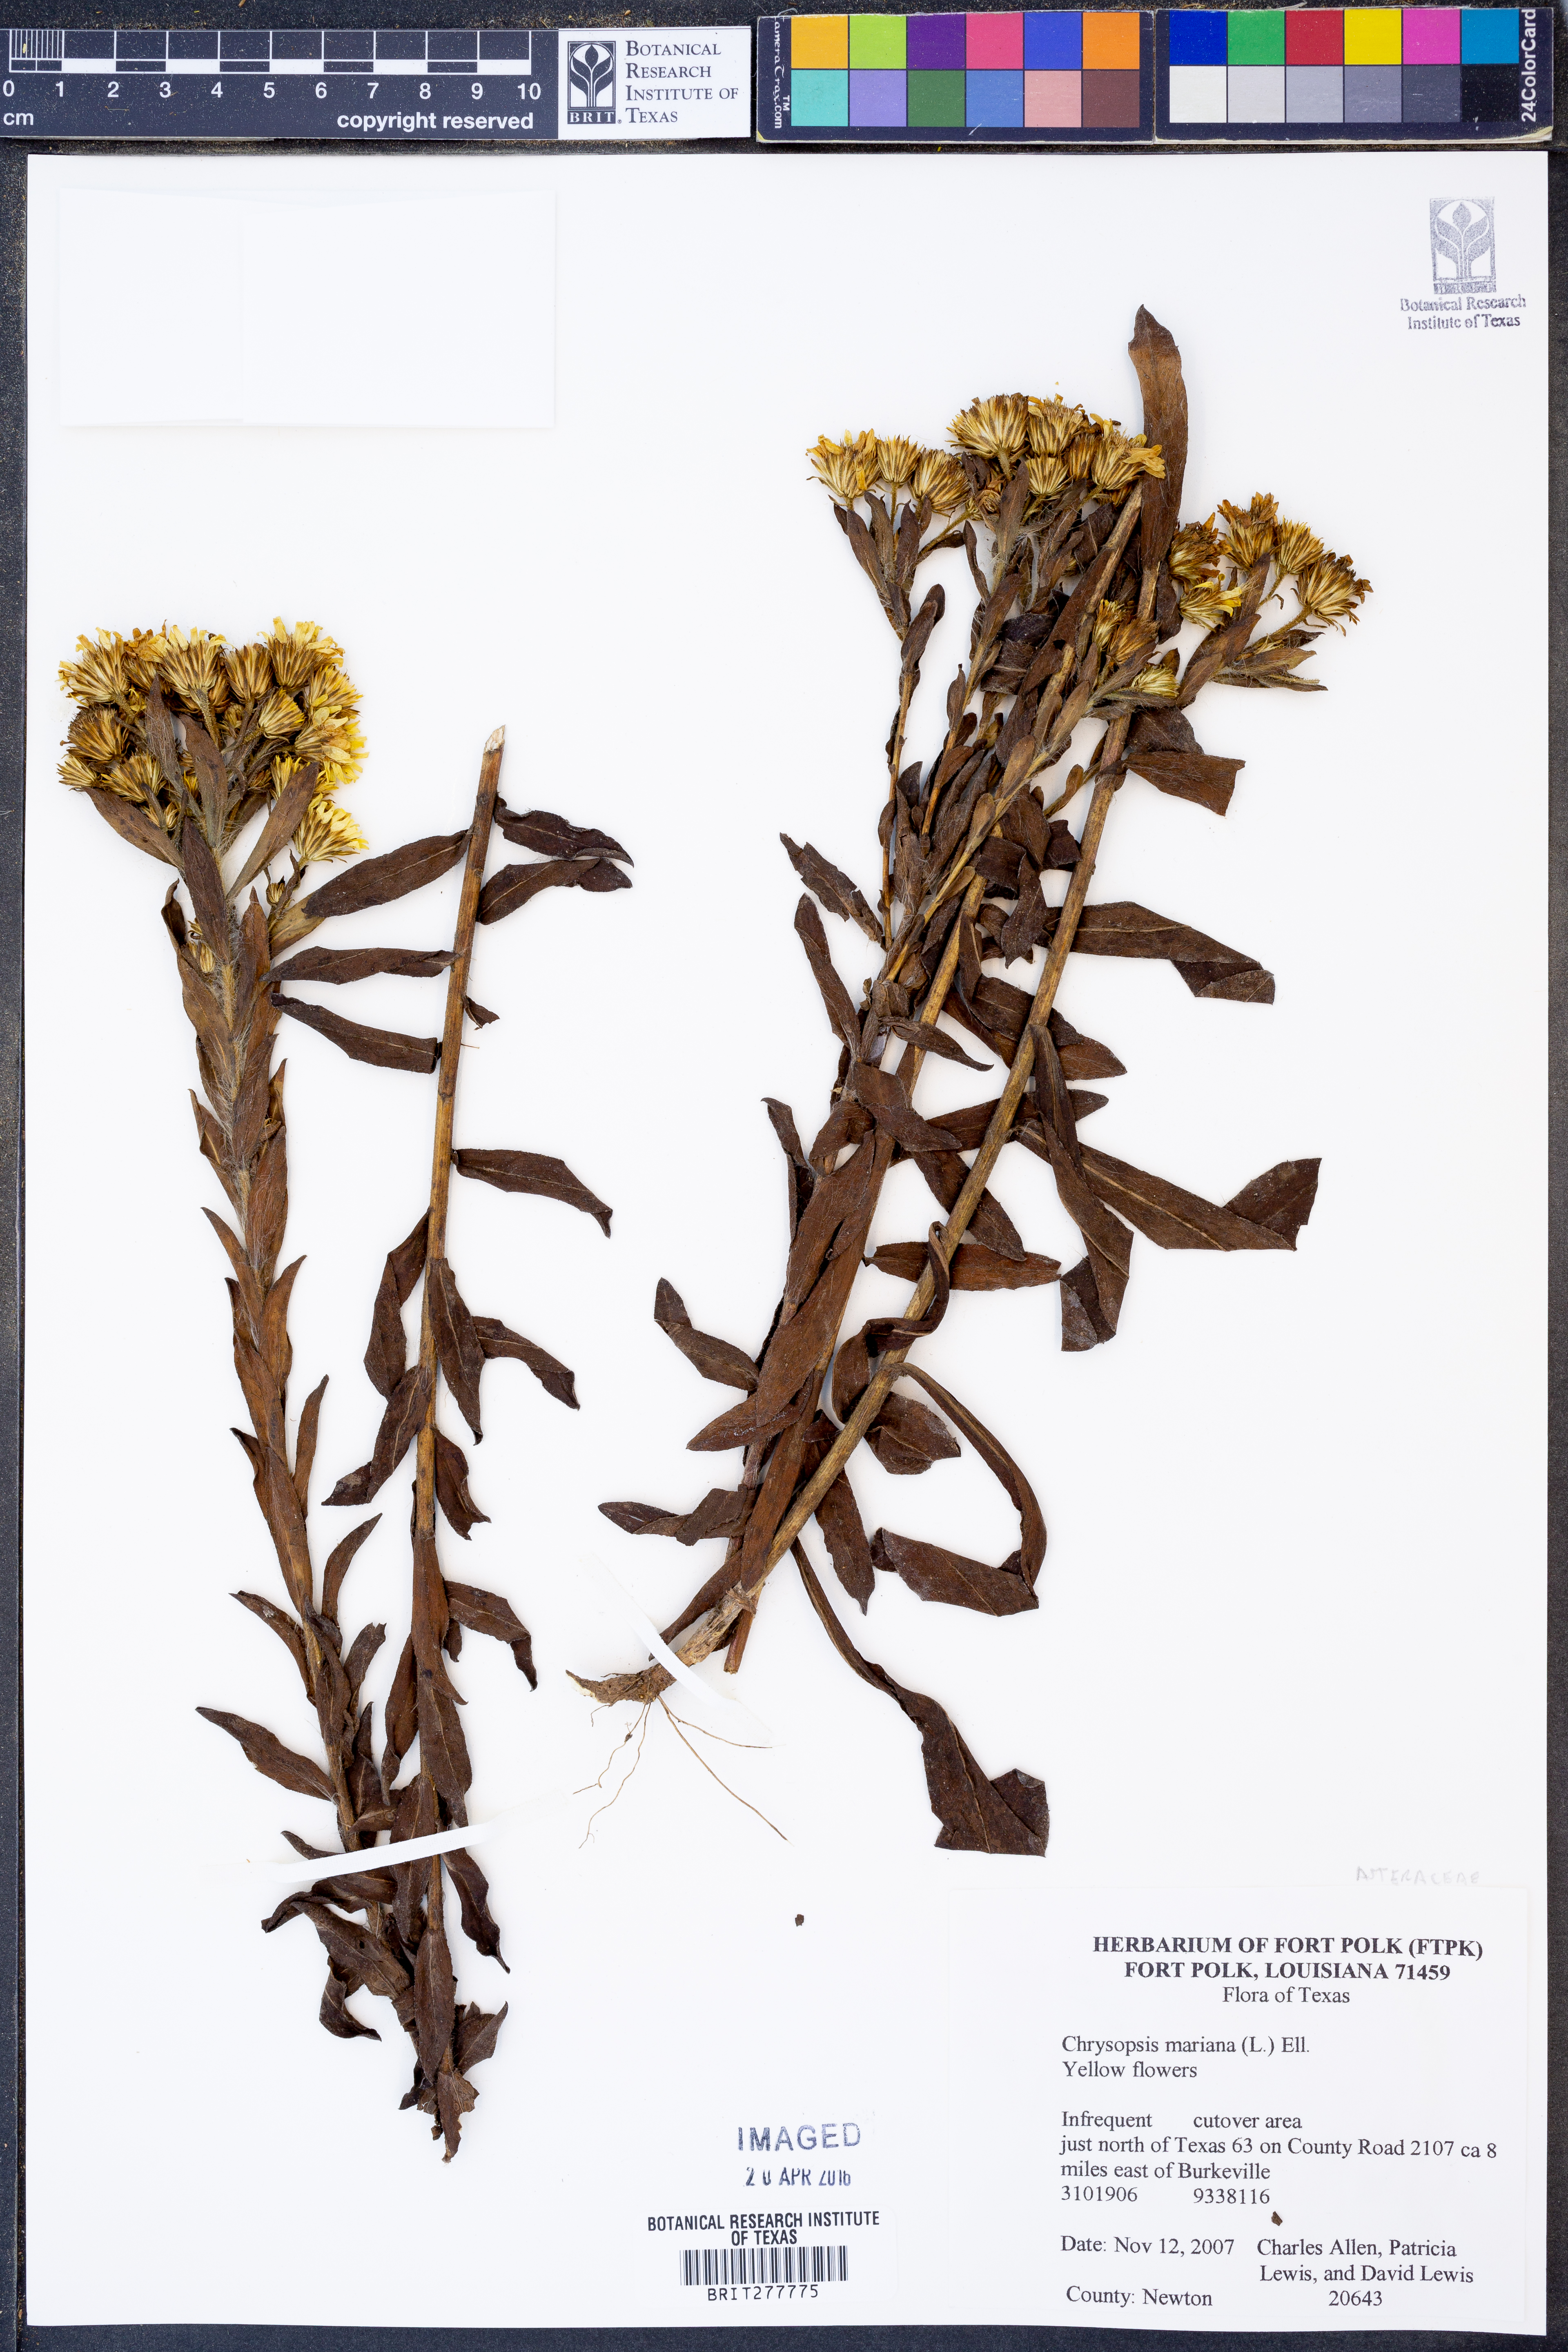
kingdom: Plantae
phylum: Tracheophyta
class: Magnoliopsida
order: Asterales
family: Asteraceae
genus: Chrysopsis
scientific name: Chrysopsis mariana
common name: Maryland golden-aster
